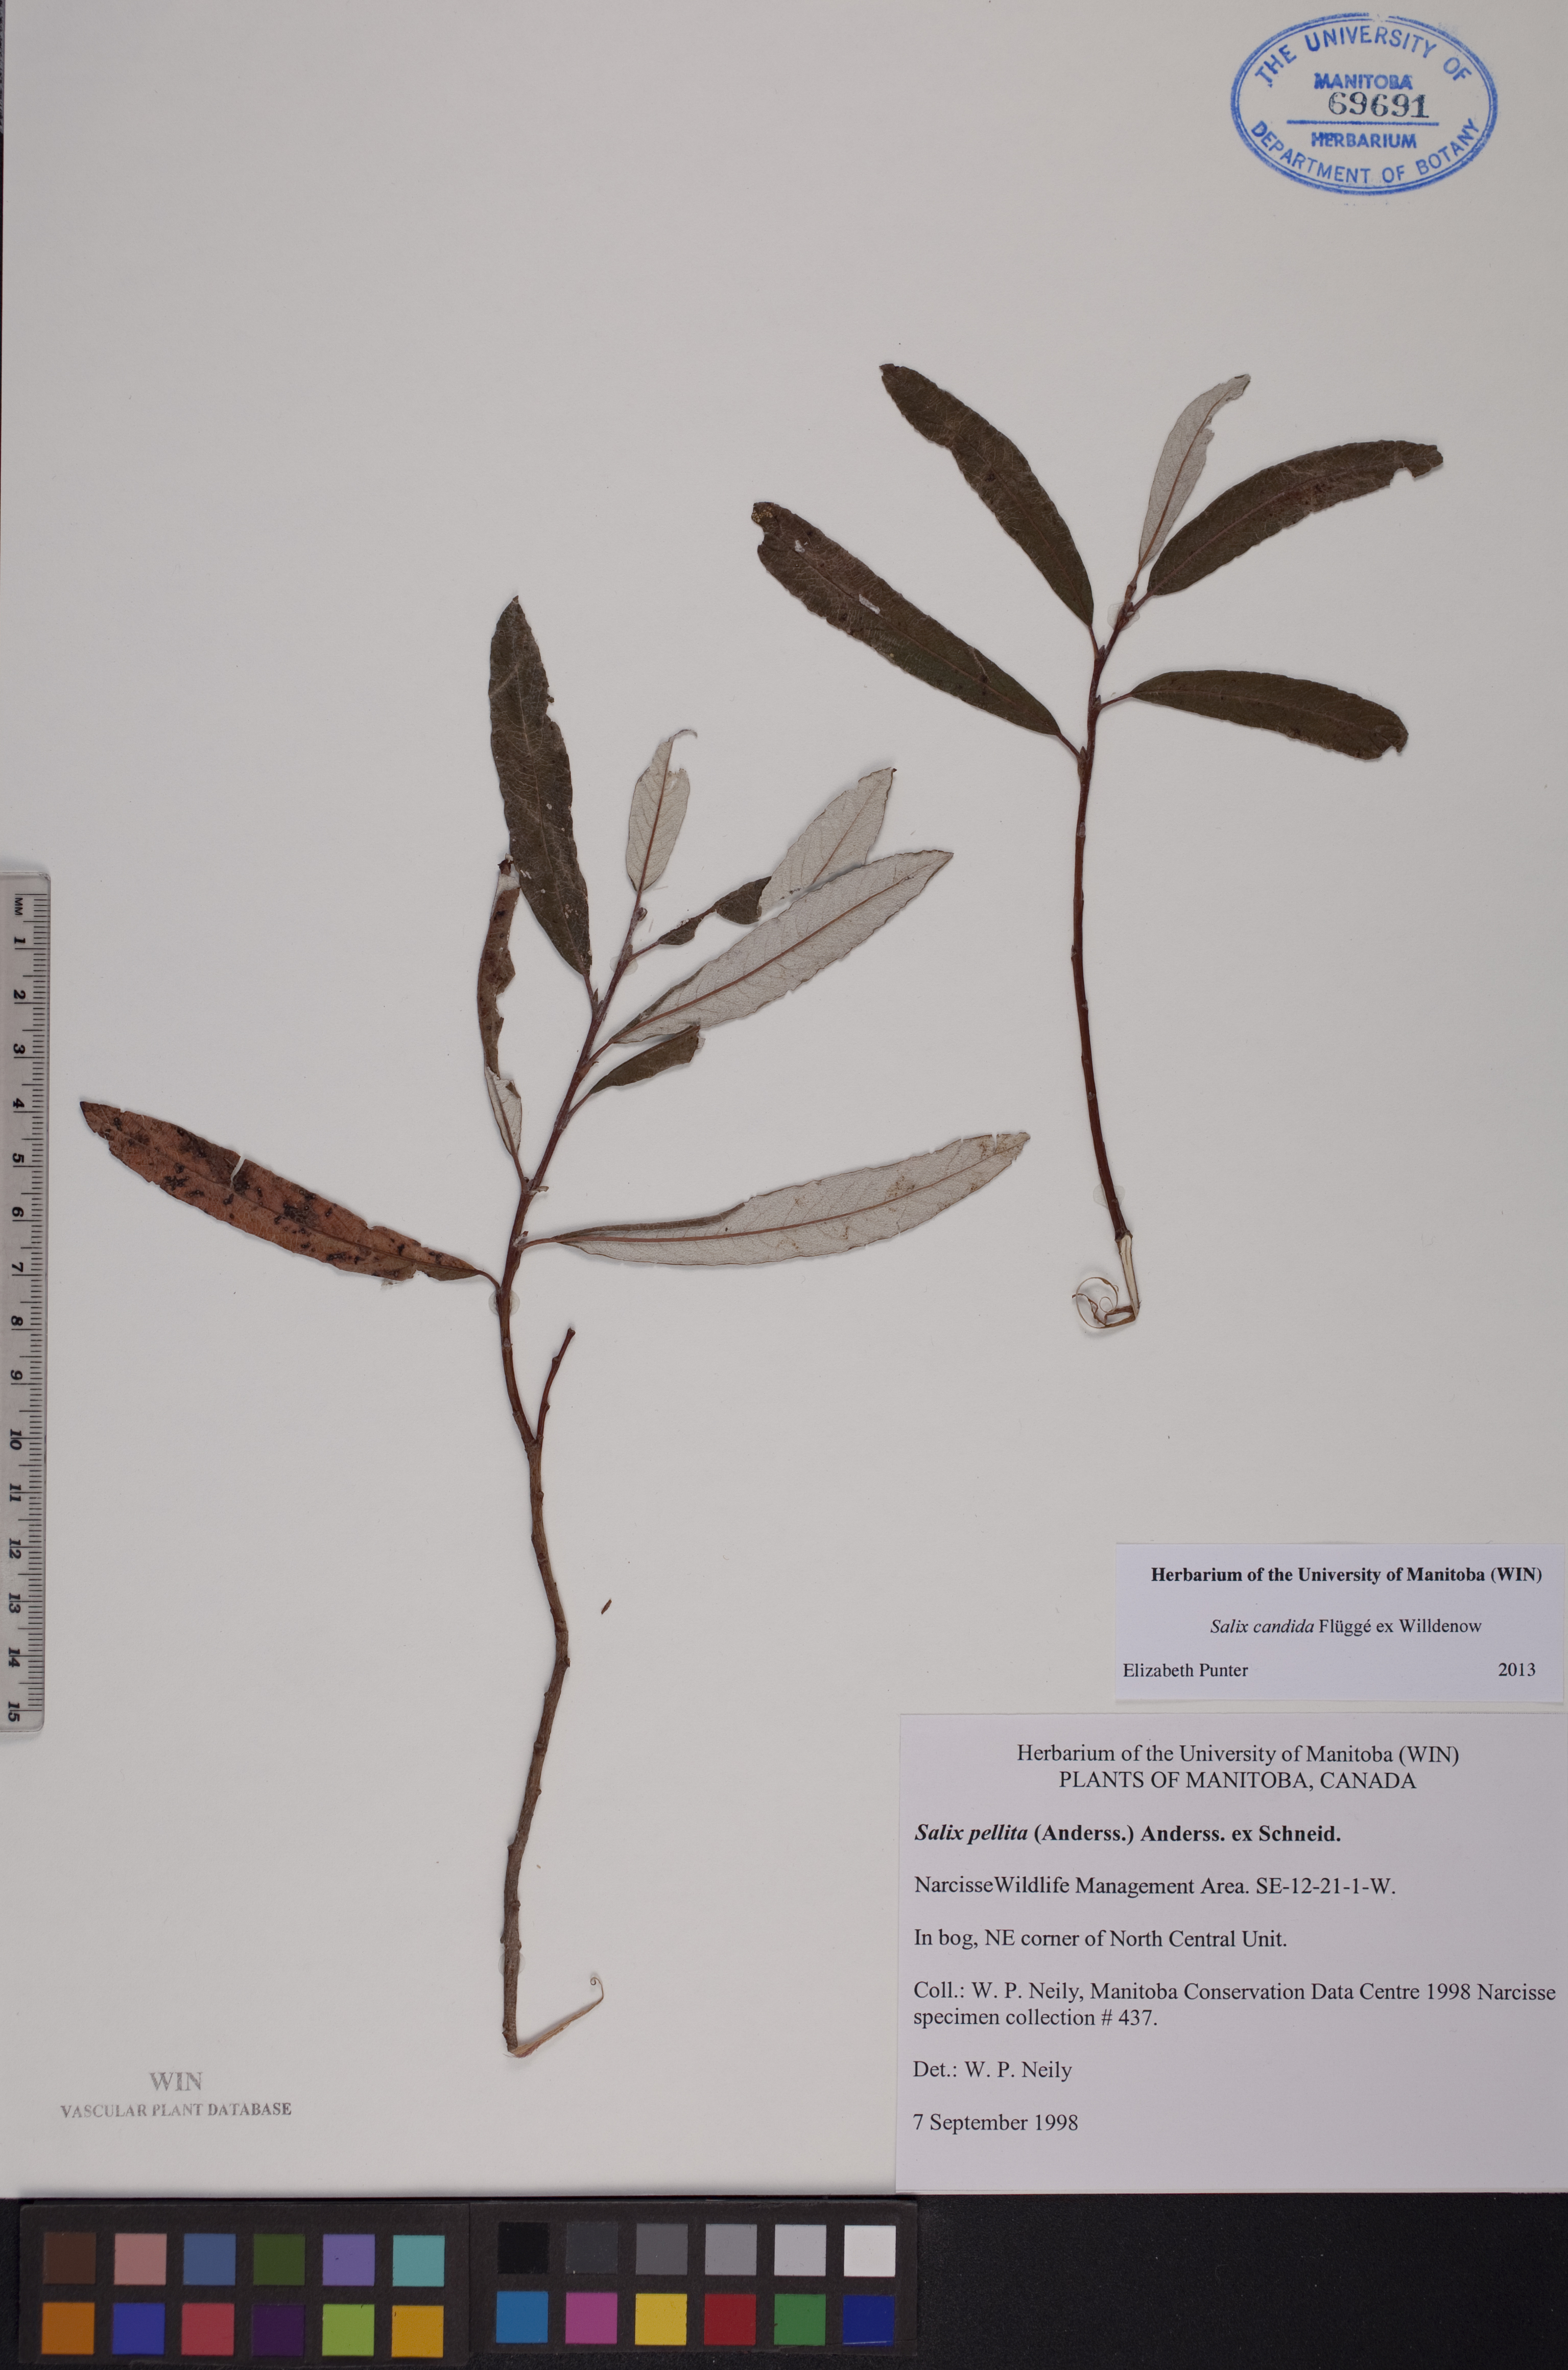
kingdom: Plantae
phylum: Tracheophyta
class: Magnoliopsida
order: Malpighiales
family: Salicaceae
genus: Salix
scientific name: Salix candida
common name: Hoary willow
